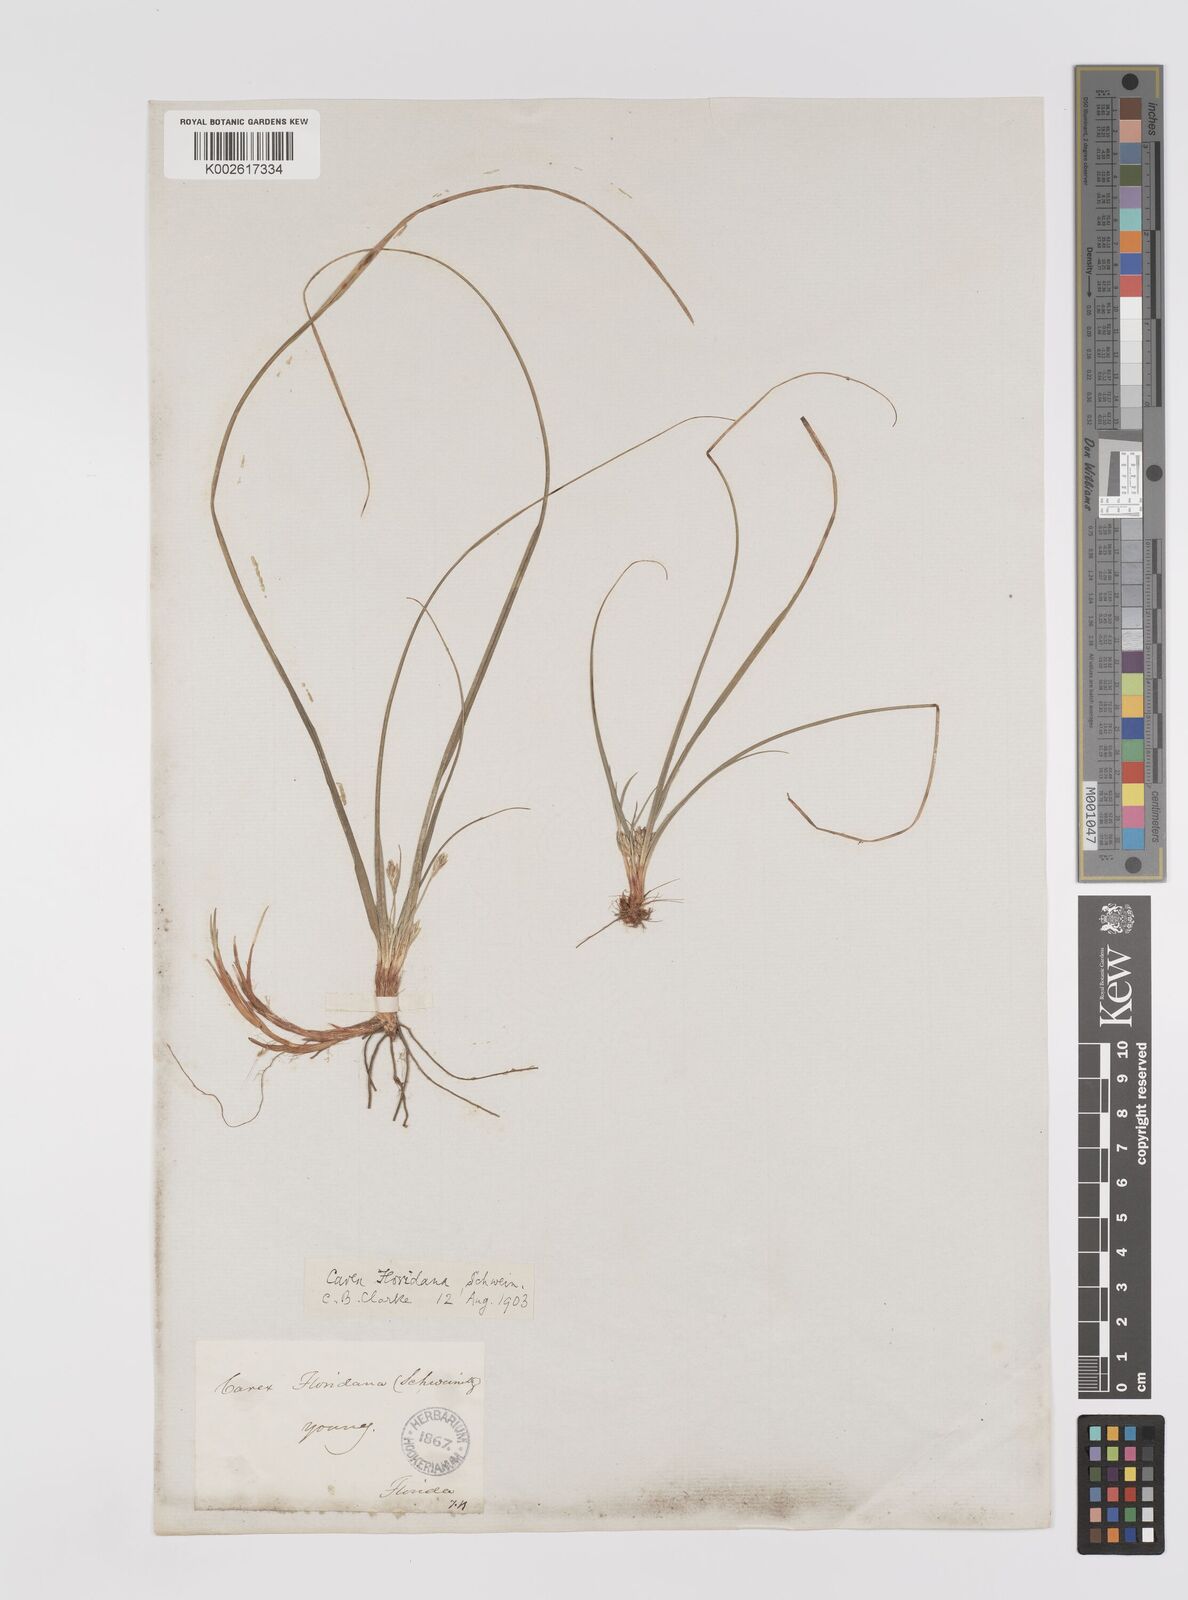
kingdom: Plantae
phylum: Tracheophyta
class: Liliopsida
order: Poales
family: Cyperaceae
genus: Carex
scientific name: Carex floridana
